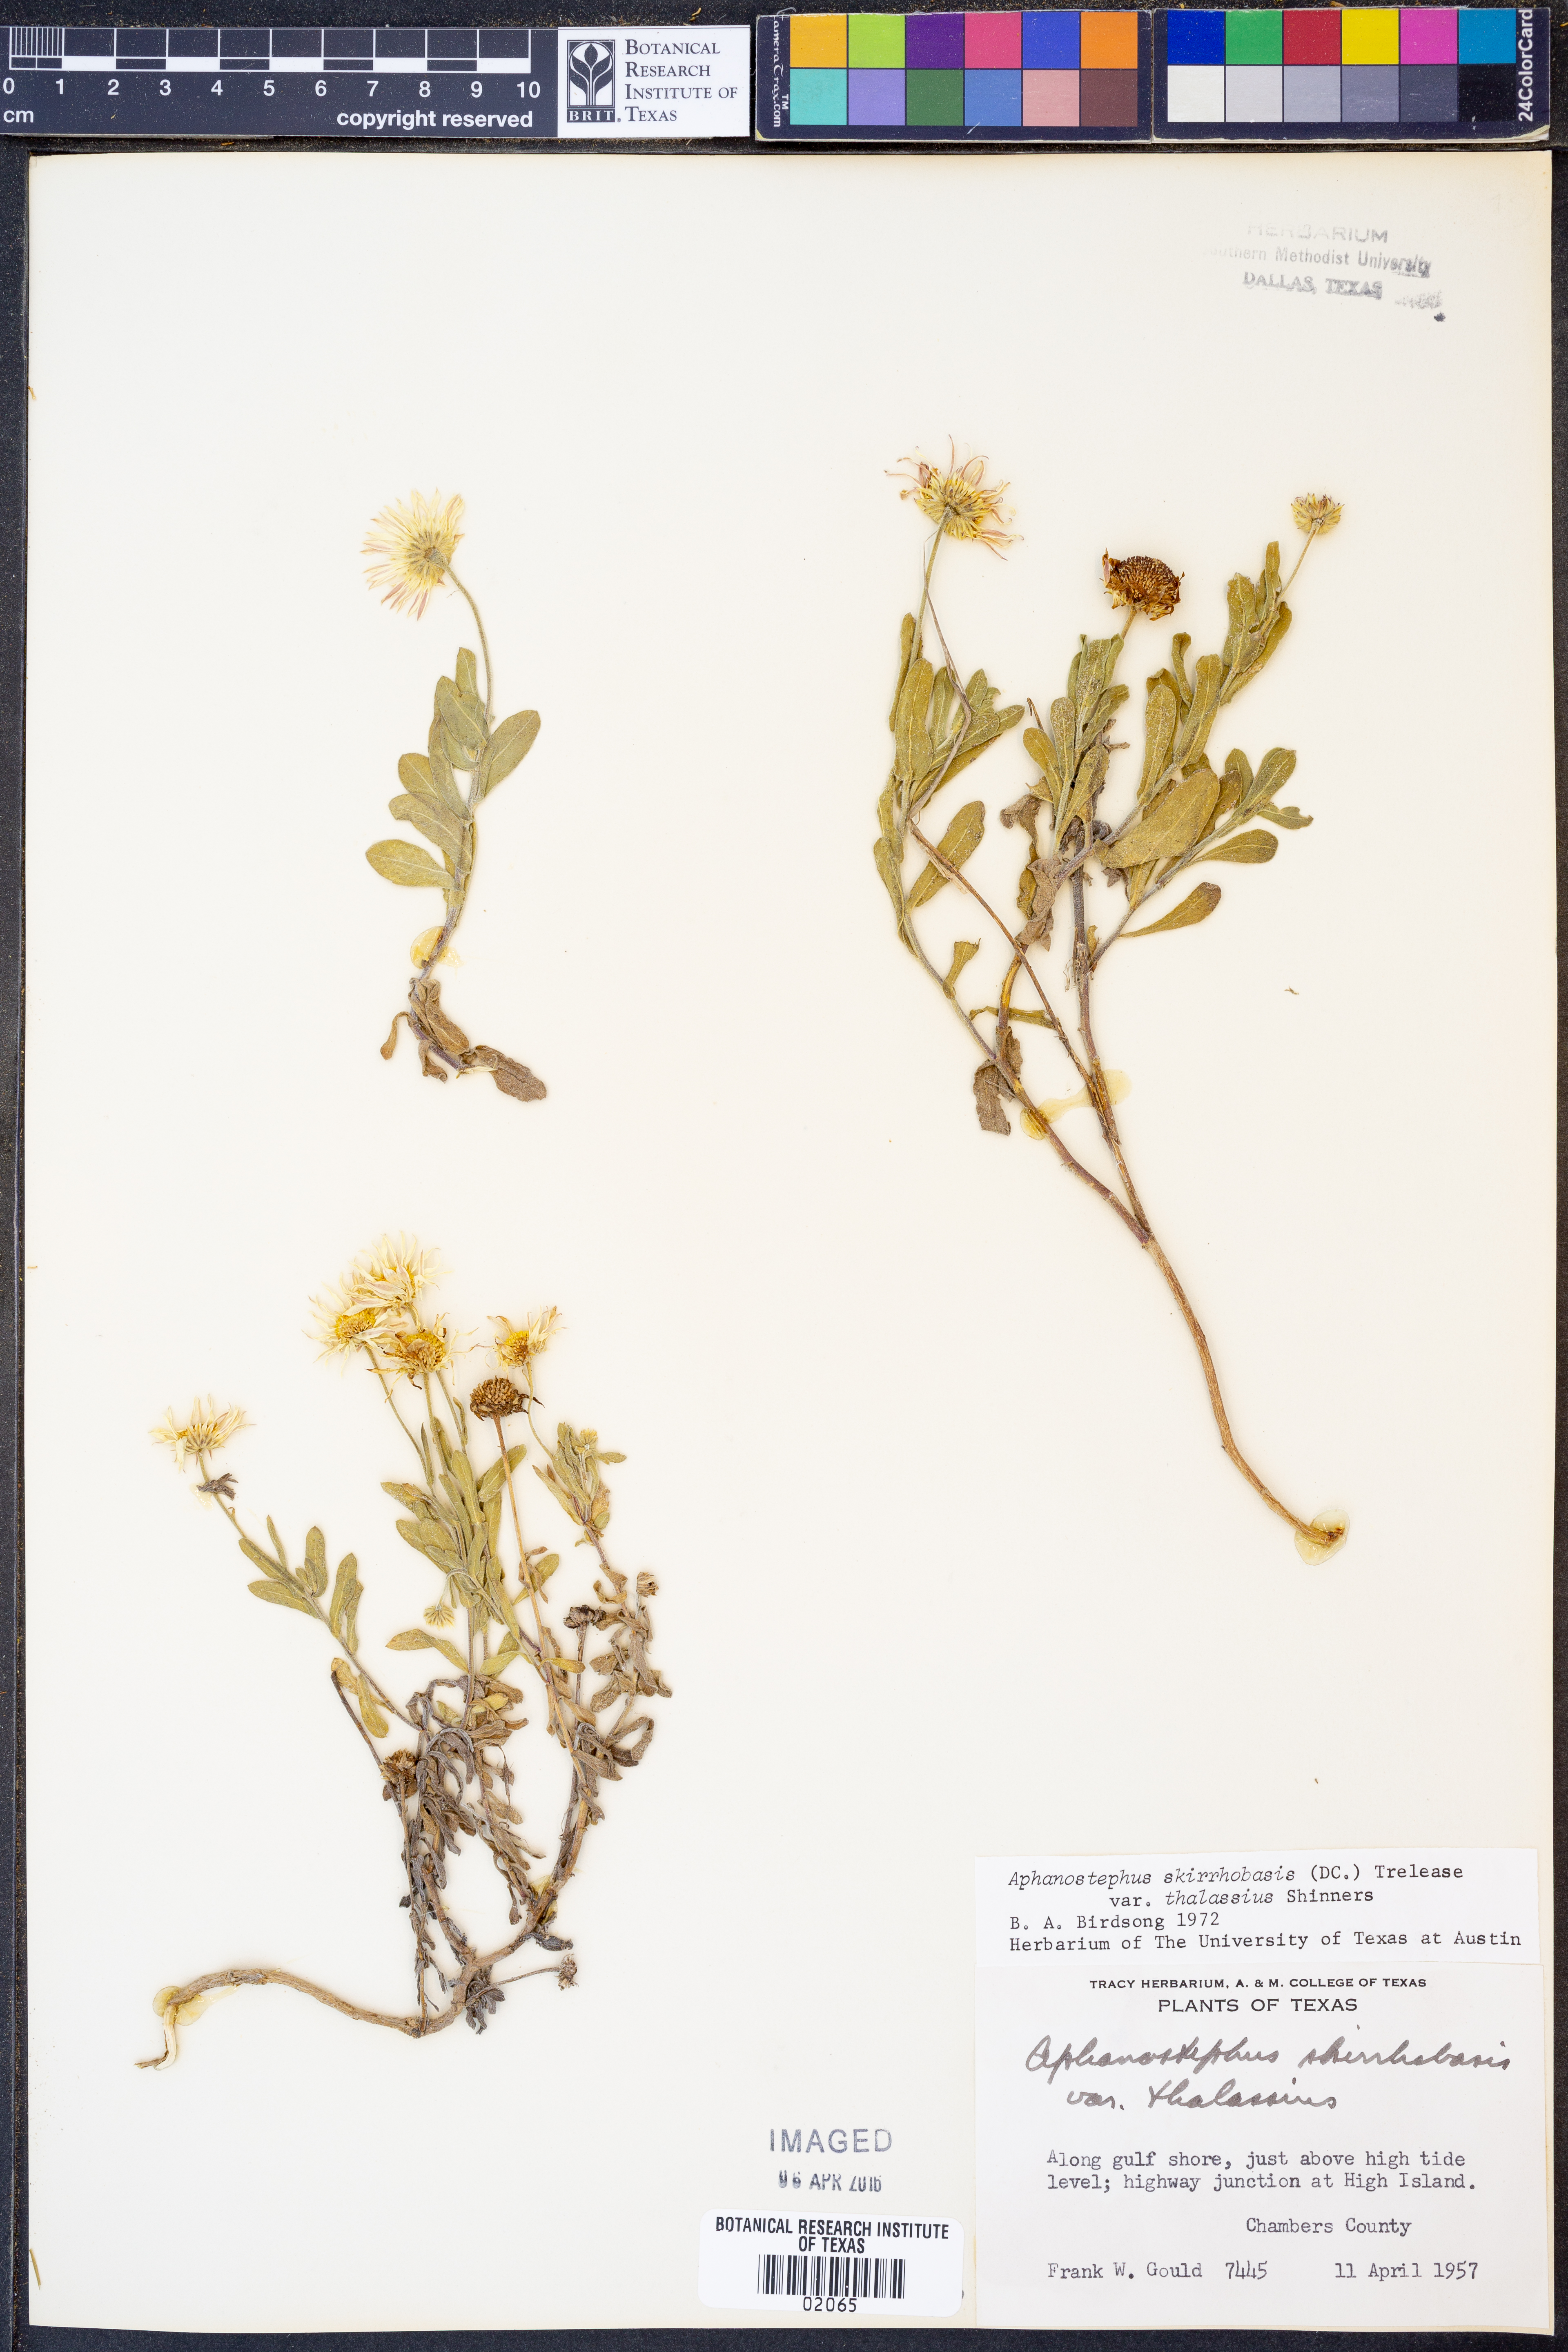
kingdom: Plantae
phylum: Tracheophyta
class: Magnoliopsida
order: Asterales
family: Asteraceae
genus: Aphanostephus
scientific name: Aphanostephus skirrhobasis
